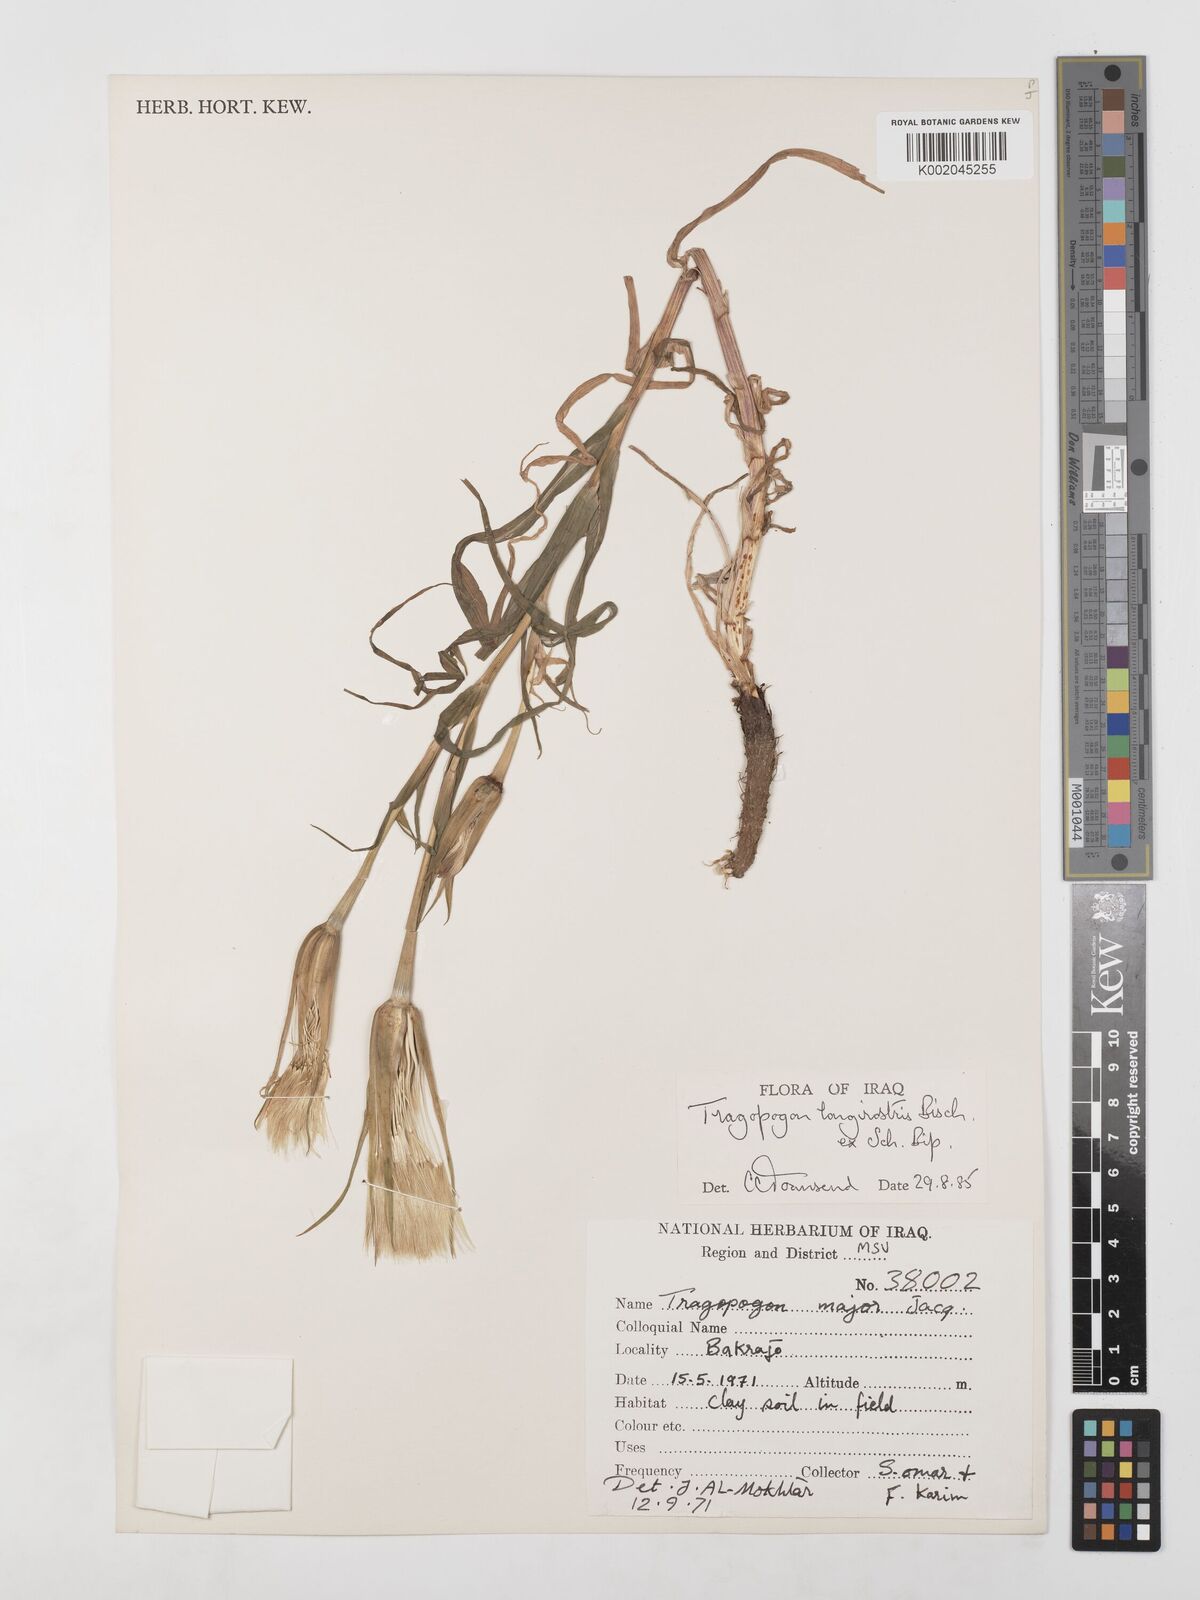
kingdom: Plantae
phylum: Tracheophyta
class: Magnoliopsida
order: Asterales
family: Asteraceae
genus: Tragopogon
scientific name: Tragopogon coelesyriacus
